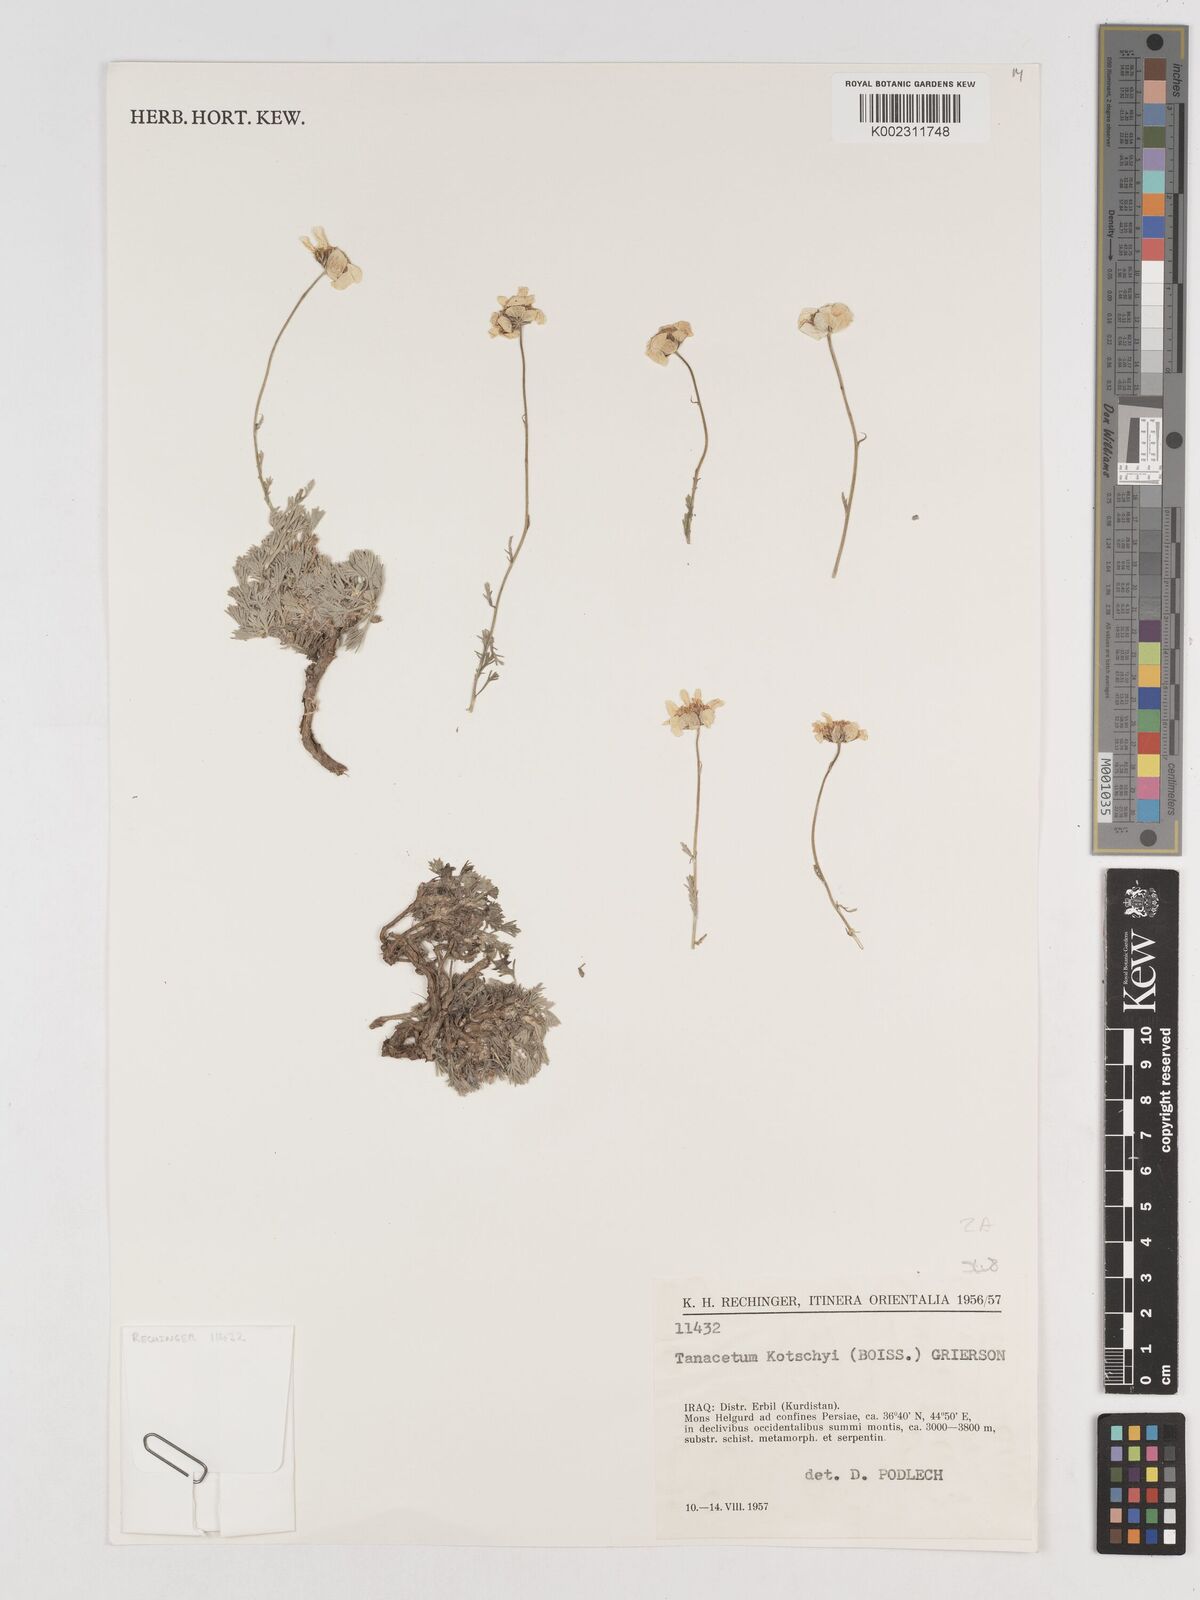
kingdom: Plantae
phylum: Tracheophyta
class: Magnoliopsida
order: Asterales
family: Asteraceae
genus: Tanacetum
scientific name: Tanacetum polycephalum
